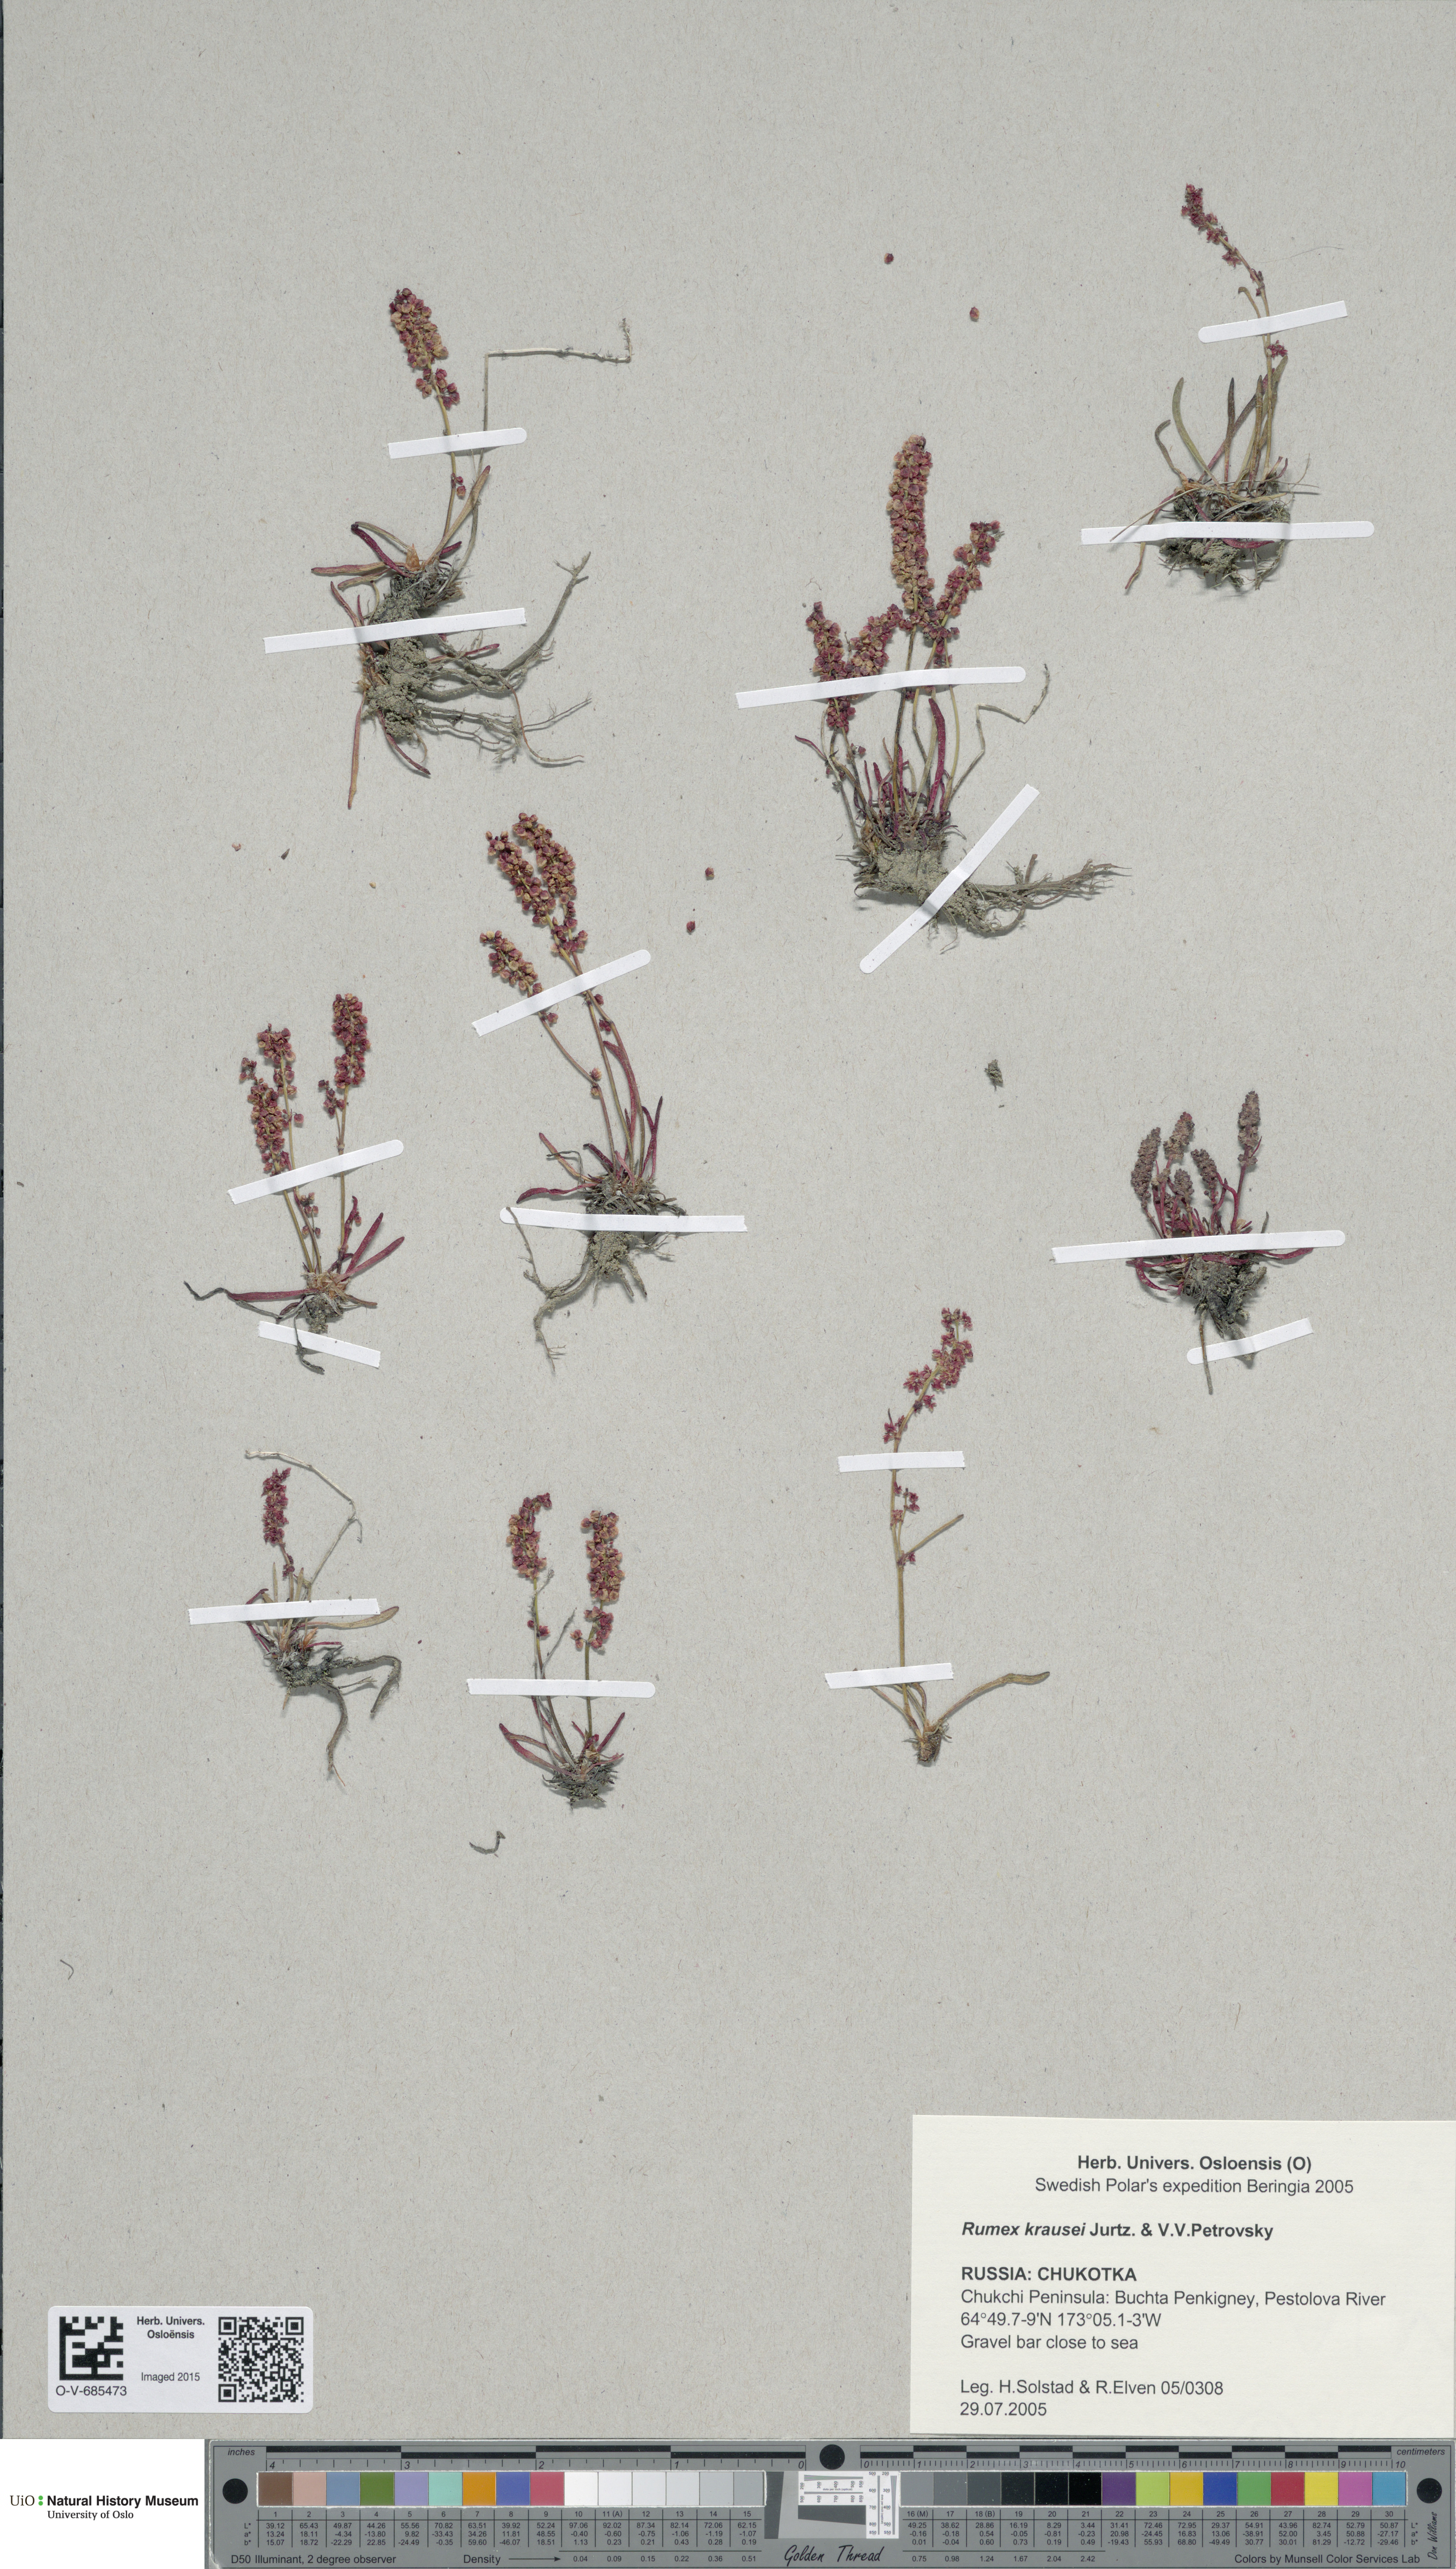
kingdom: Plantae
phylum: Tracheophyta
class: Magnoliopsida
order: Caryophyllales
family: Polygonaceae
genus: Rumex
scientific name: Rumex krausei
